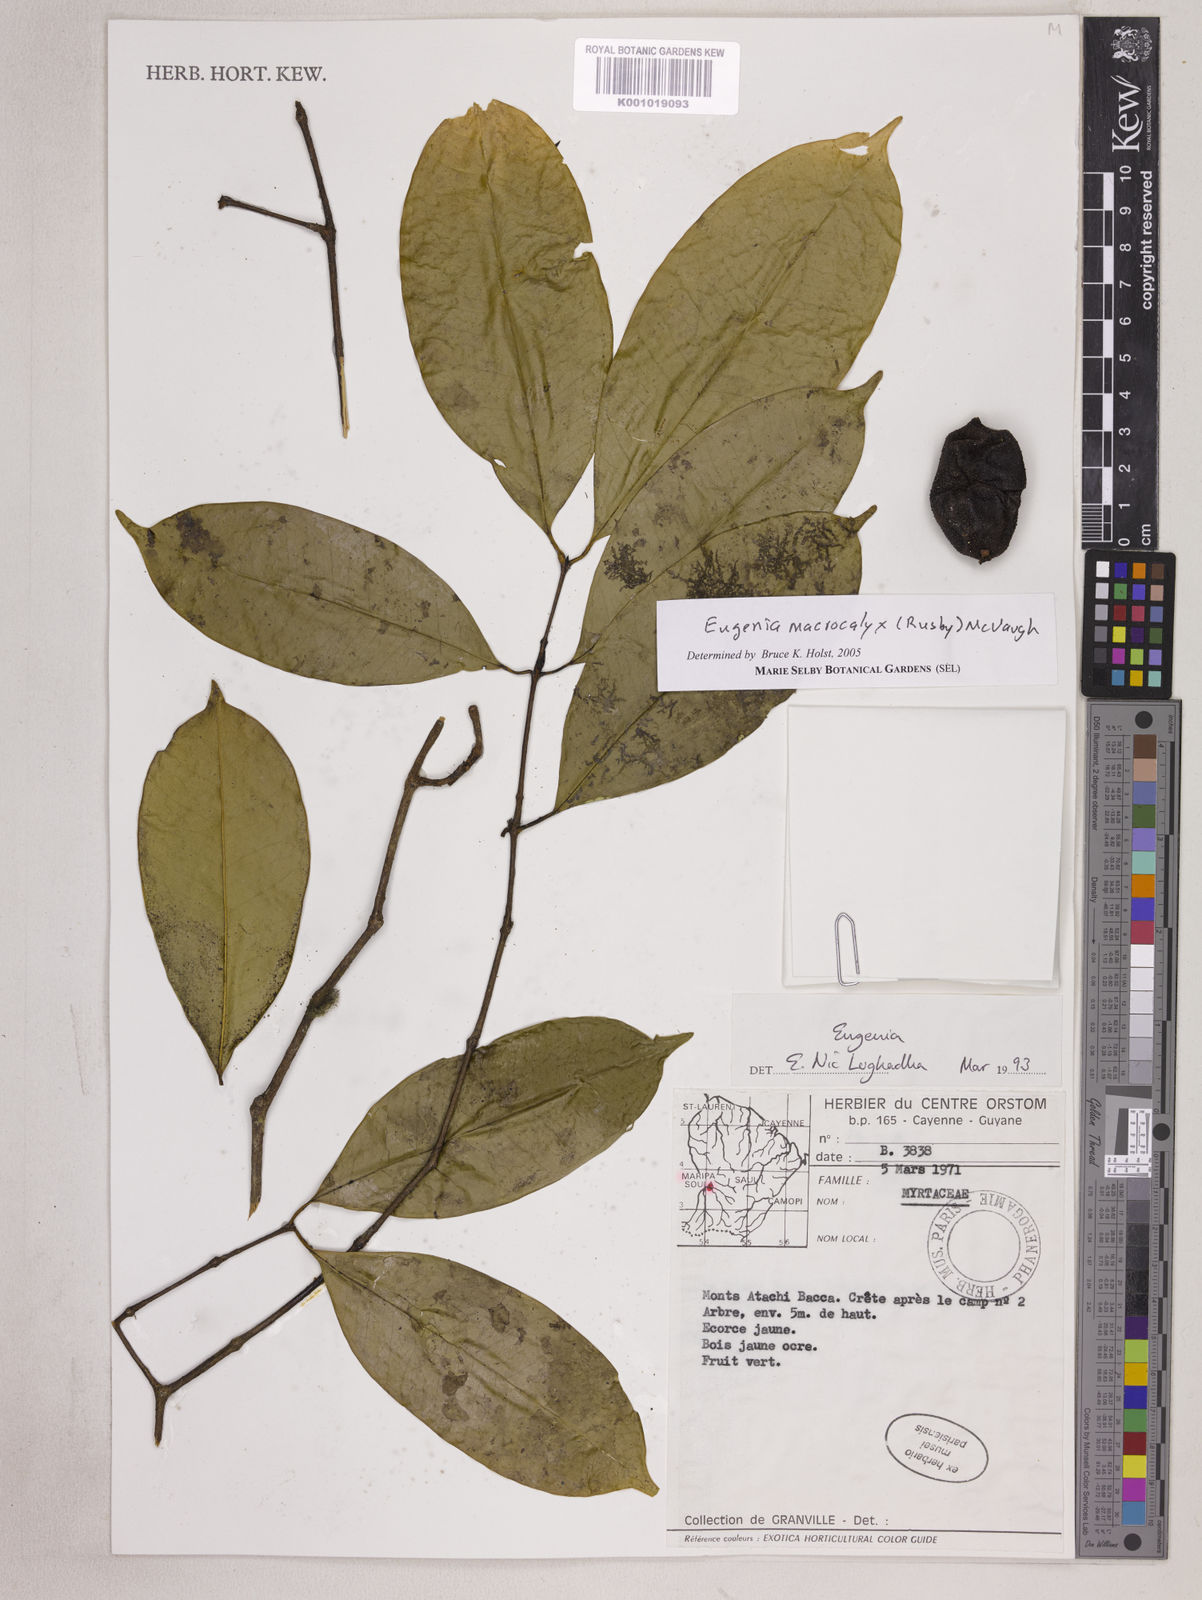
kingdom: Plantae
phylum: Tracheophyta
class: Magnoliopsida
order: Myrtales
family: Myrtaceae
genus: Eugenia
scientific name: Eugenia wentii
